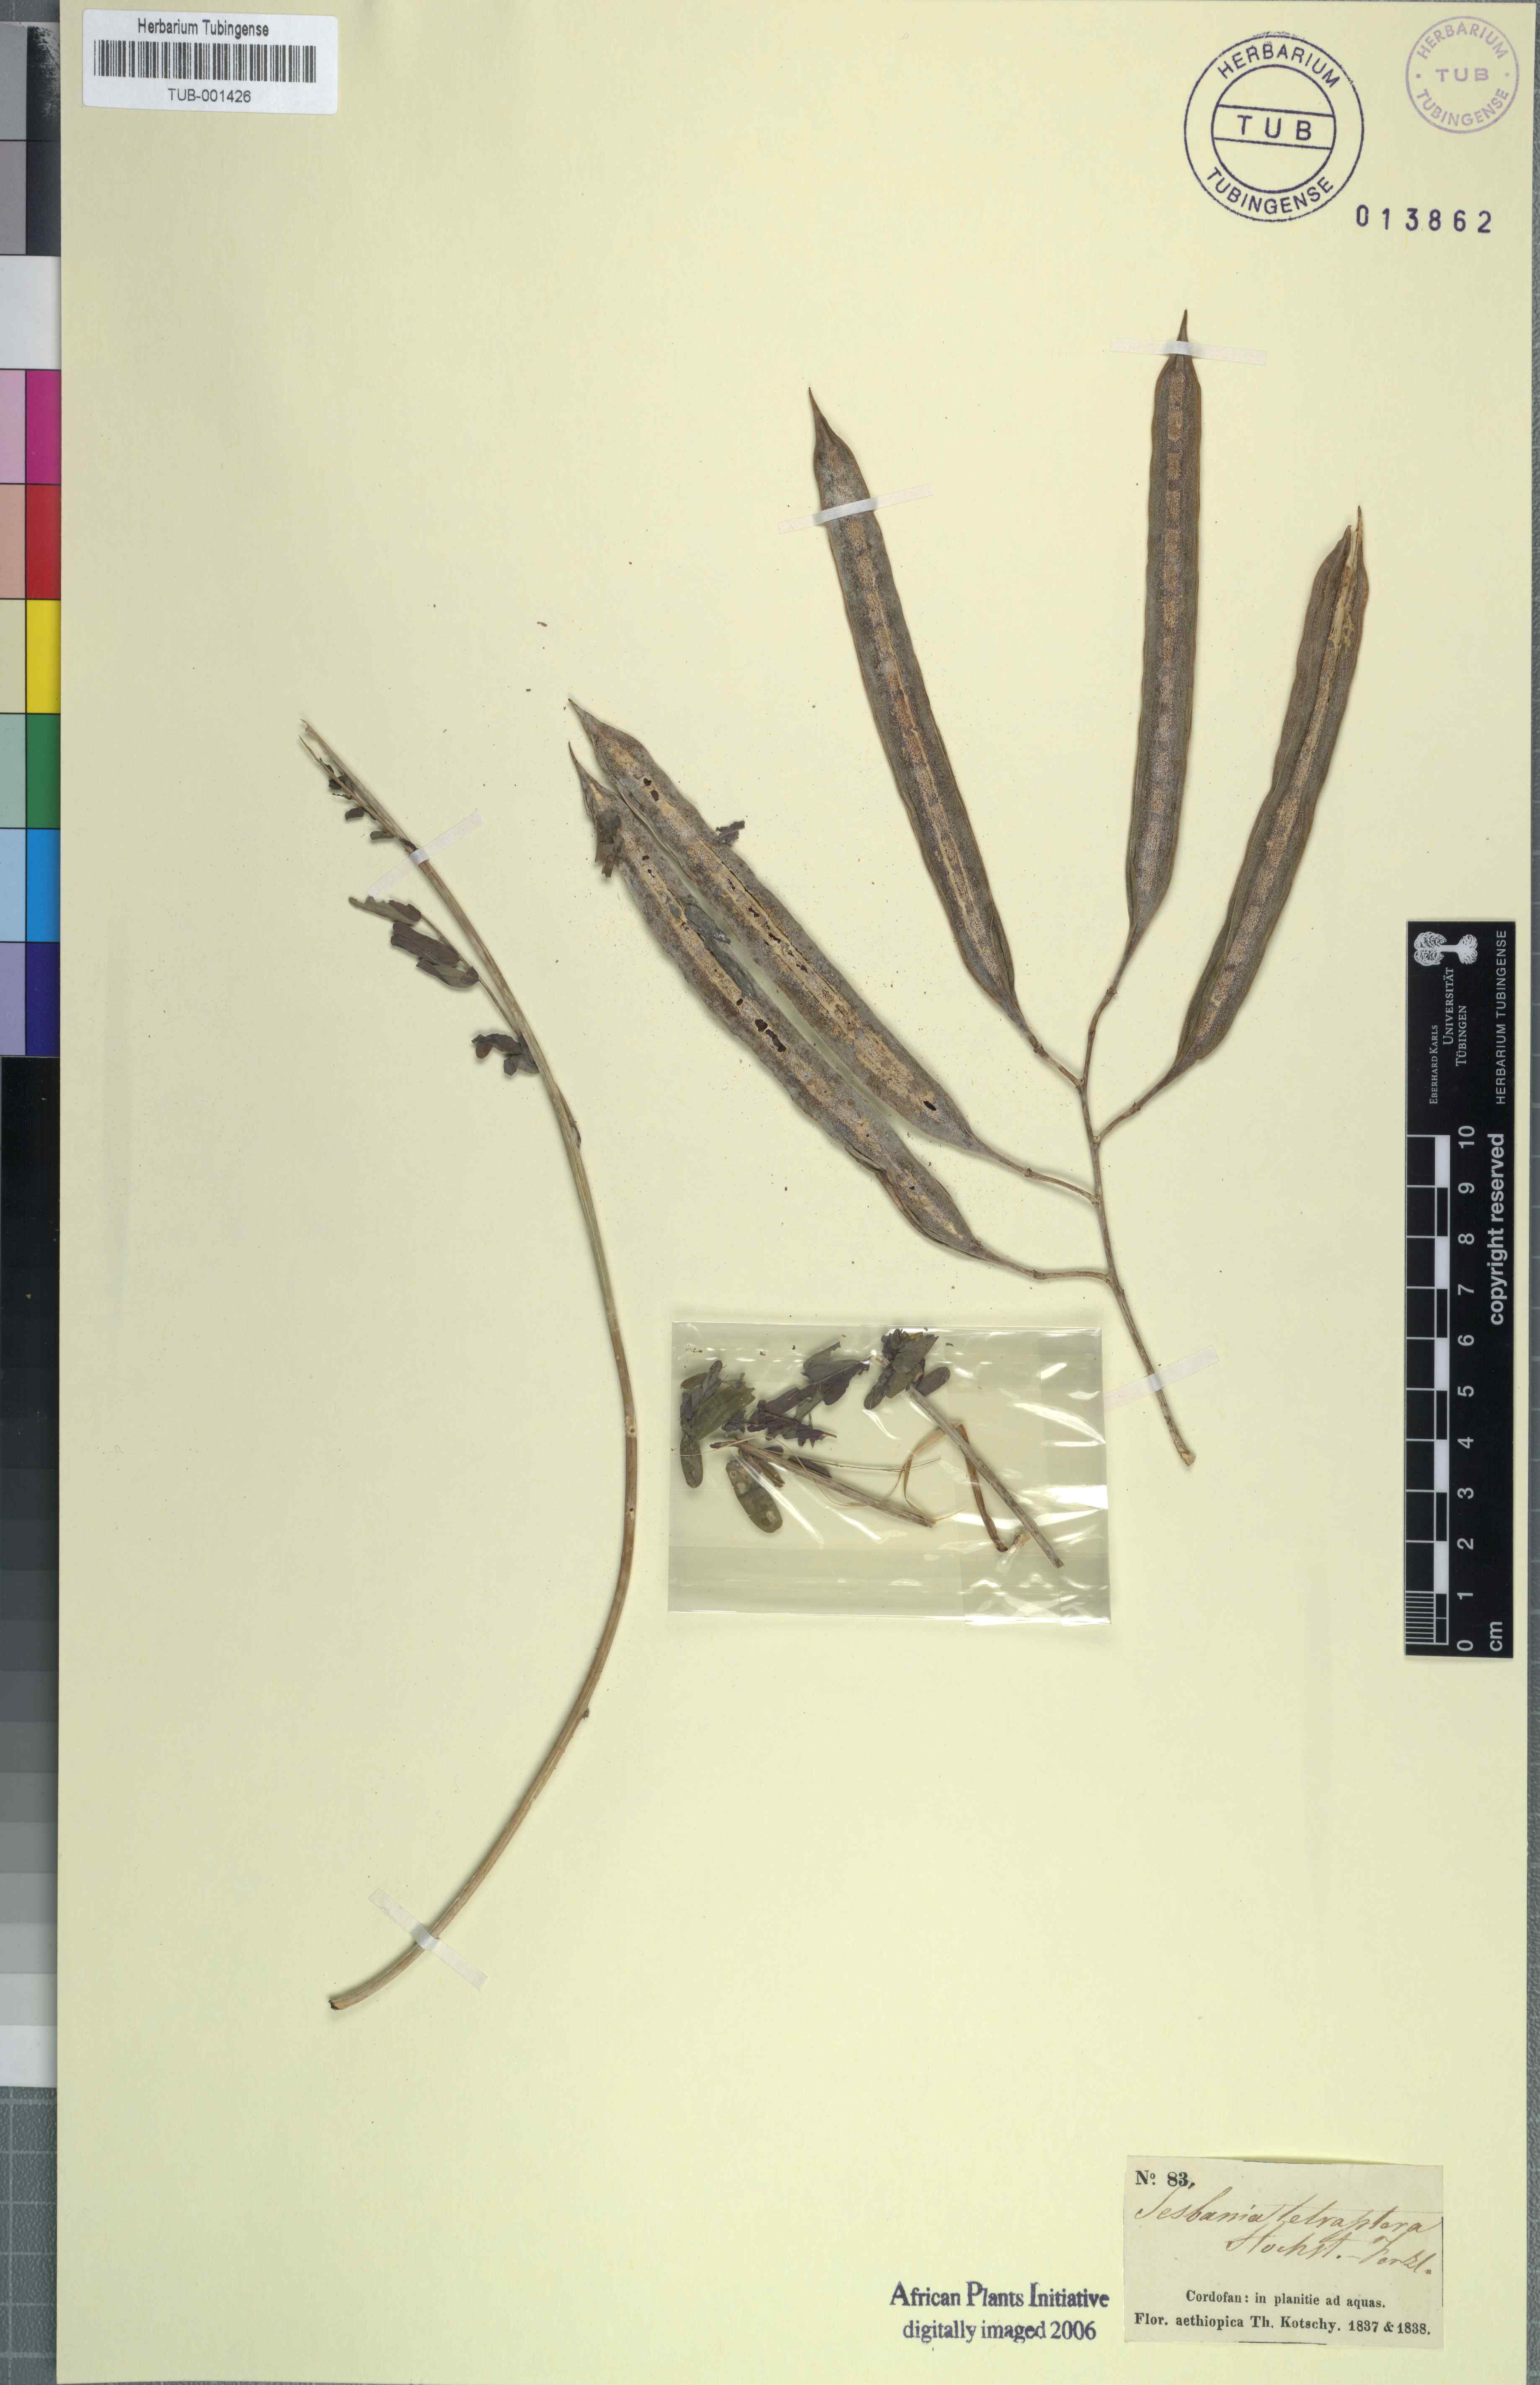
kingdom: Plantae
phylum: Tracheophyta
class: Magnoliopsida
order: Fabales
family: Fabaceae
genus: Sesbania
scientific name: Sesbania tetraptera
